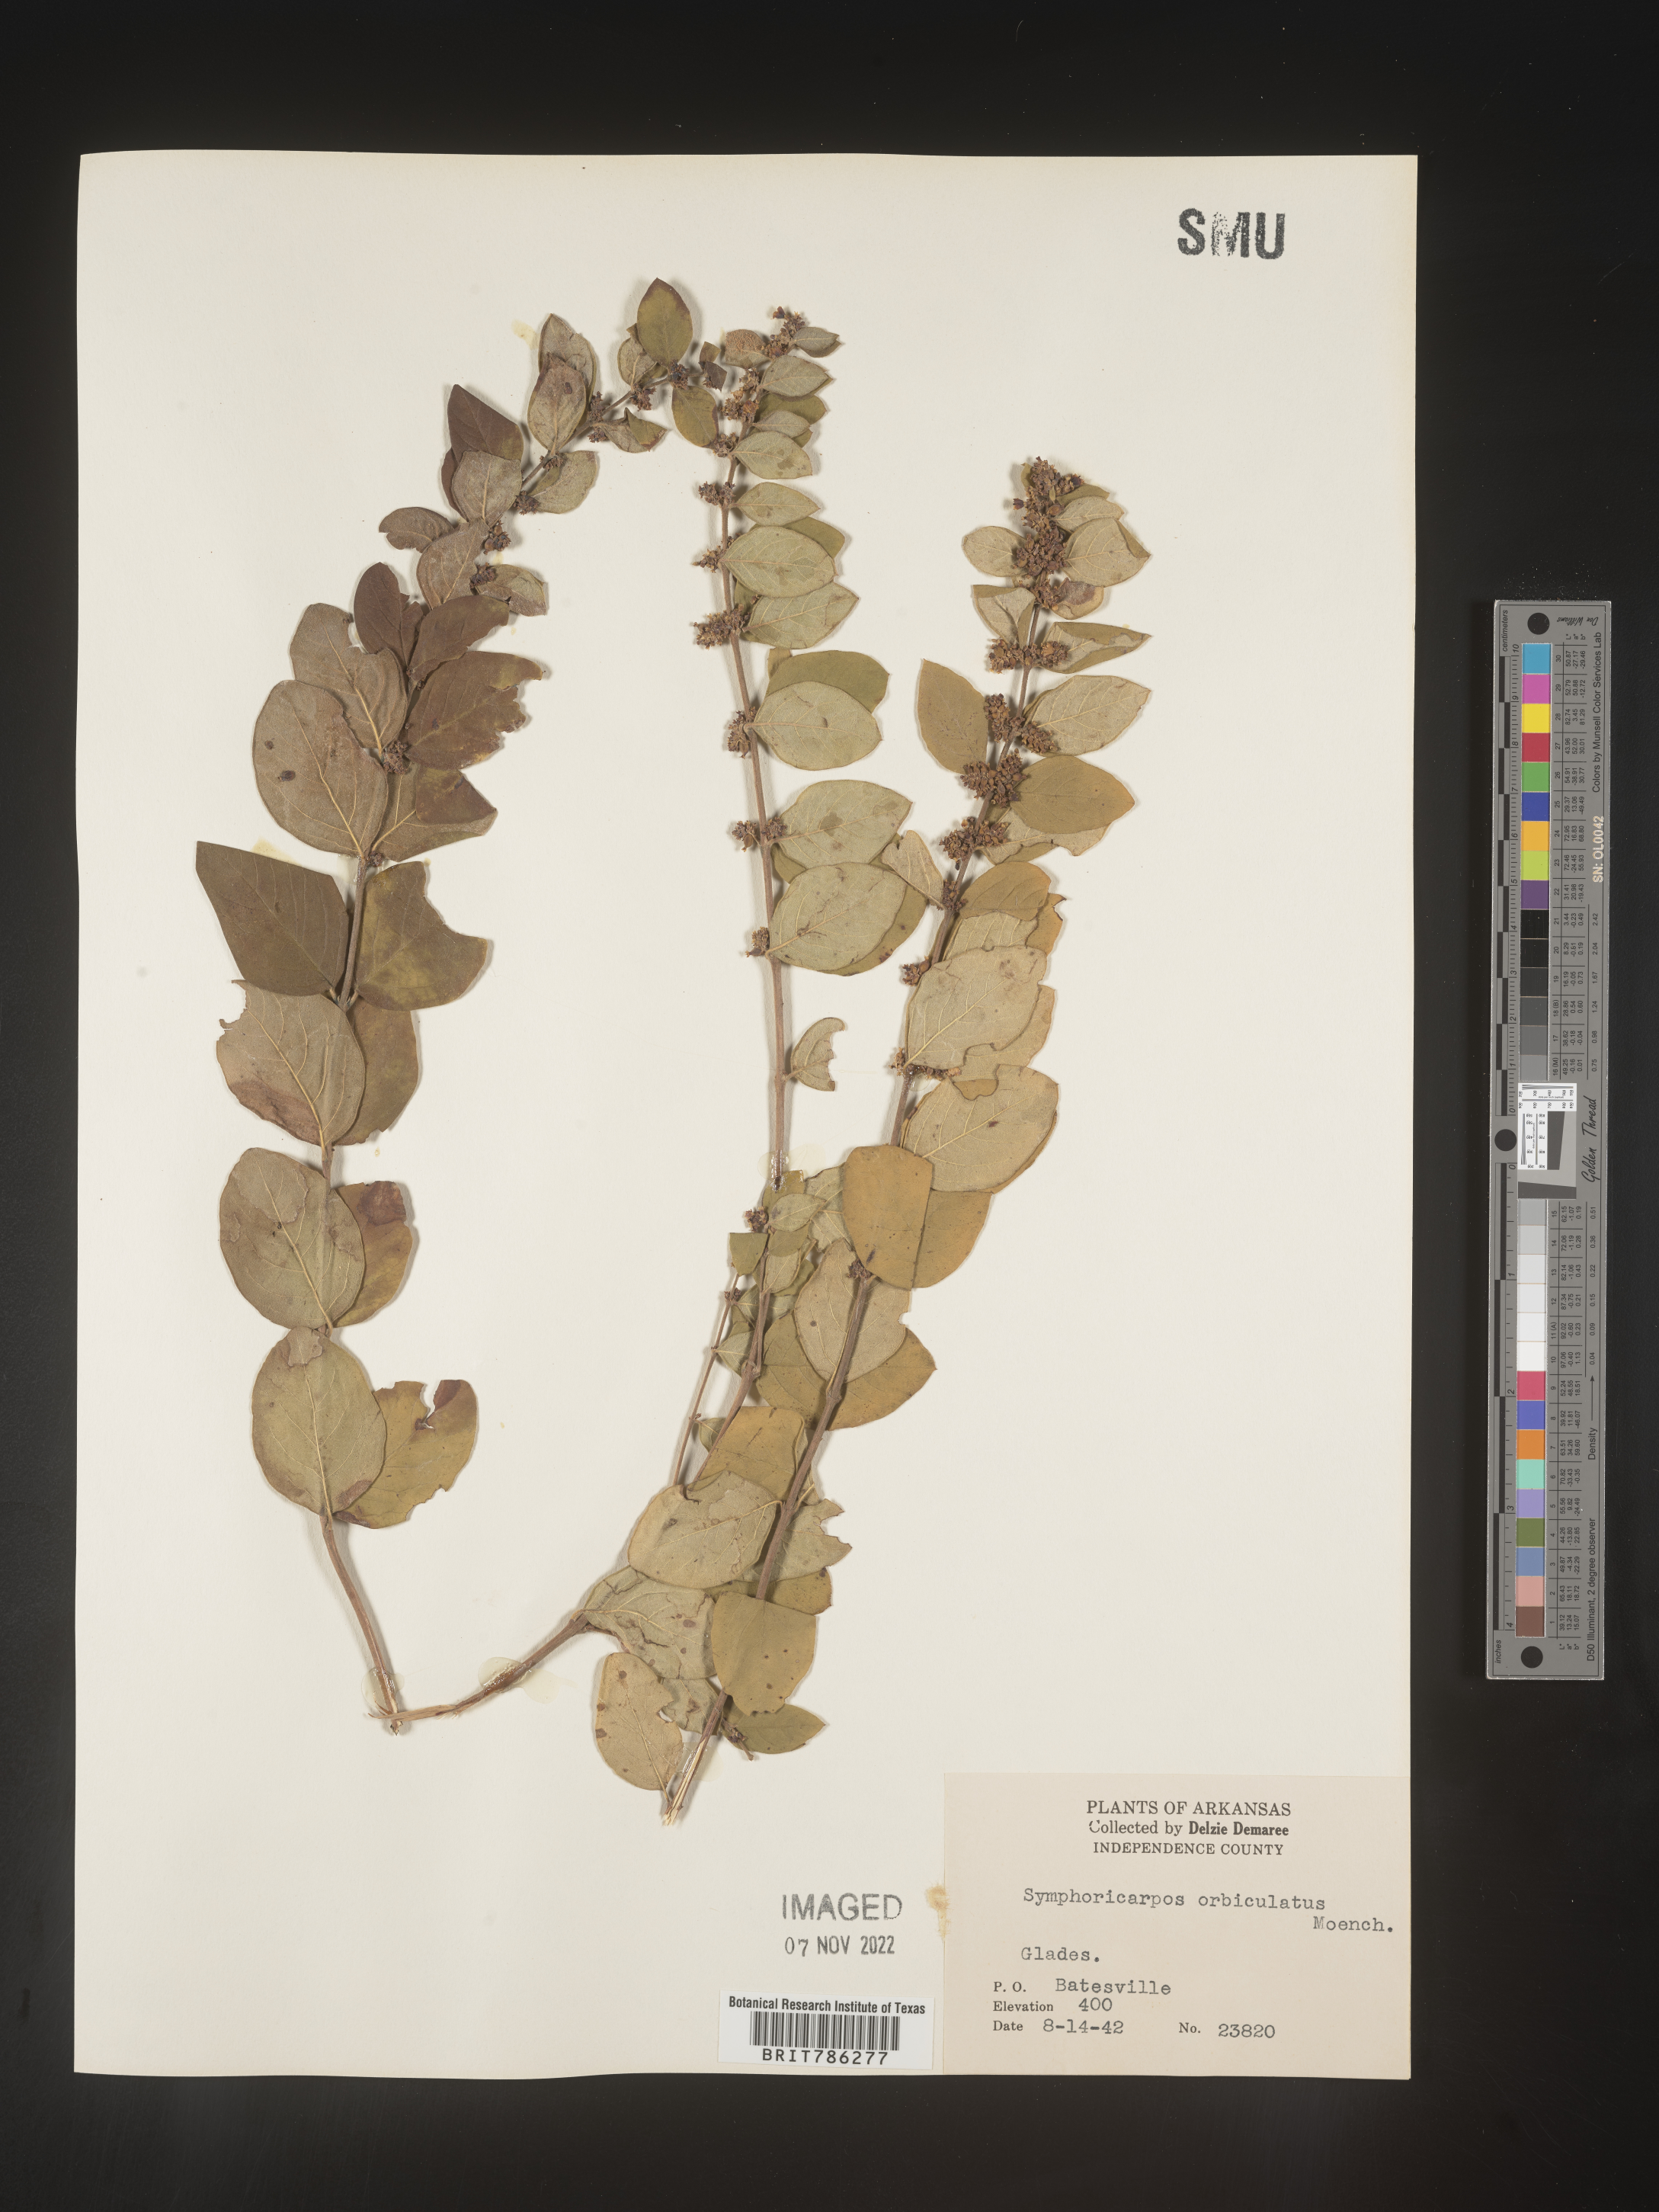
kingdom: Plantae
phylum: Tracheophyta
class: Magnoliopsida
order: Dipsacales
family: Caprifoliaceae
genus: Symphoricarpos
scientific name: Symphoricarpos orbiculatus
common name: Coralberry
